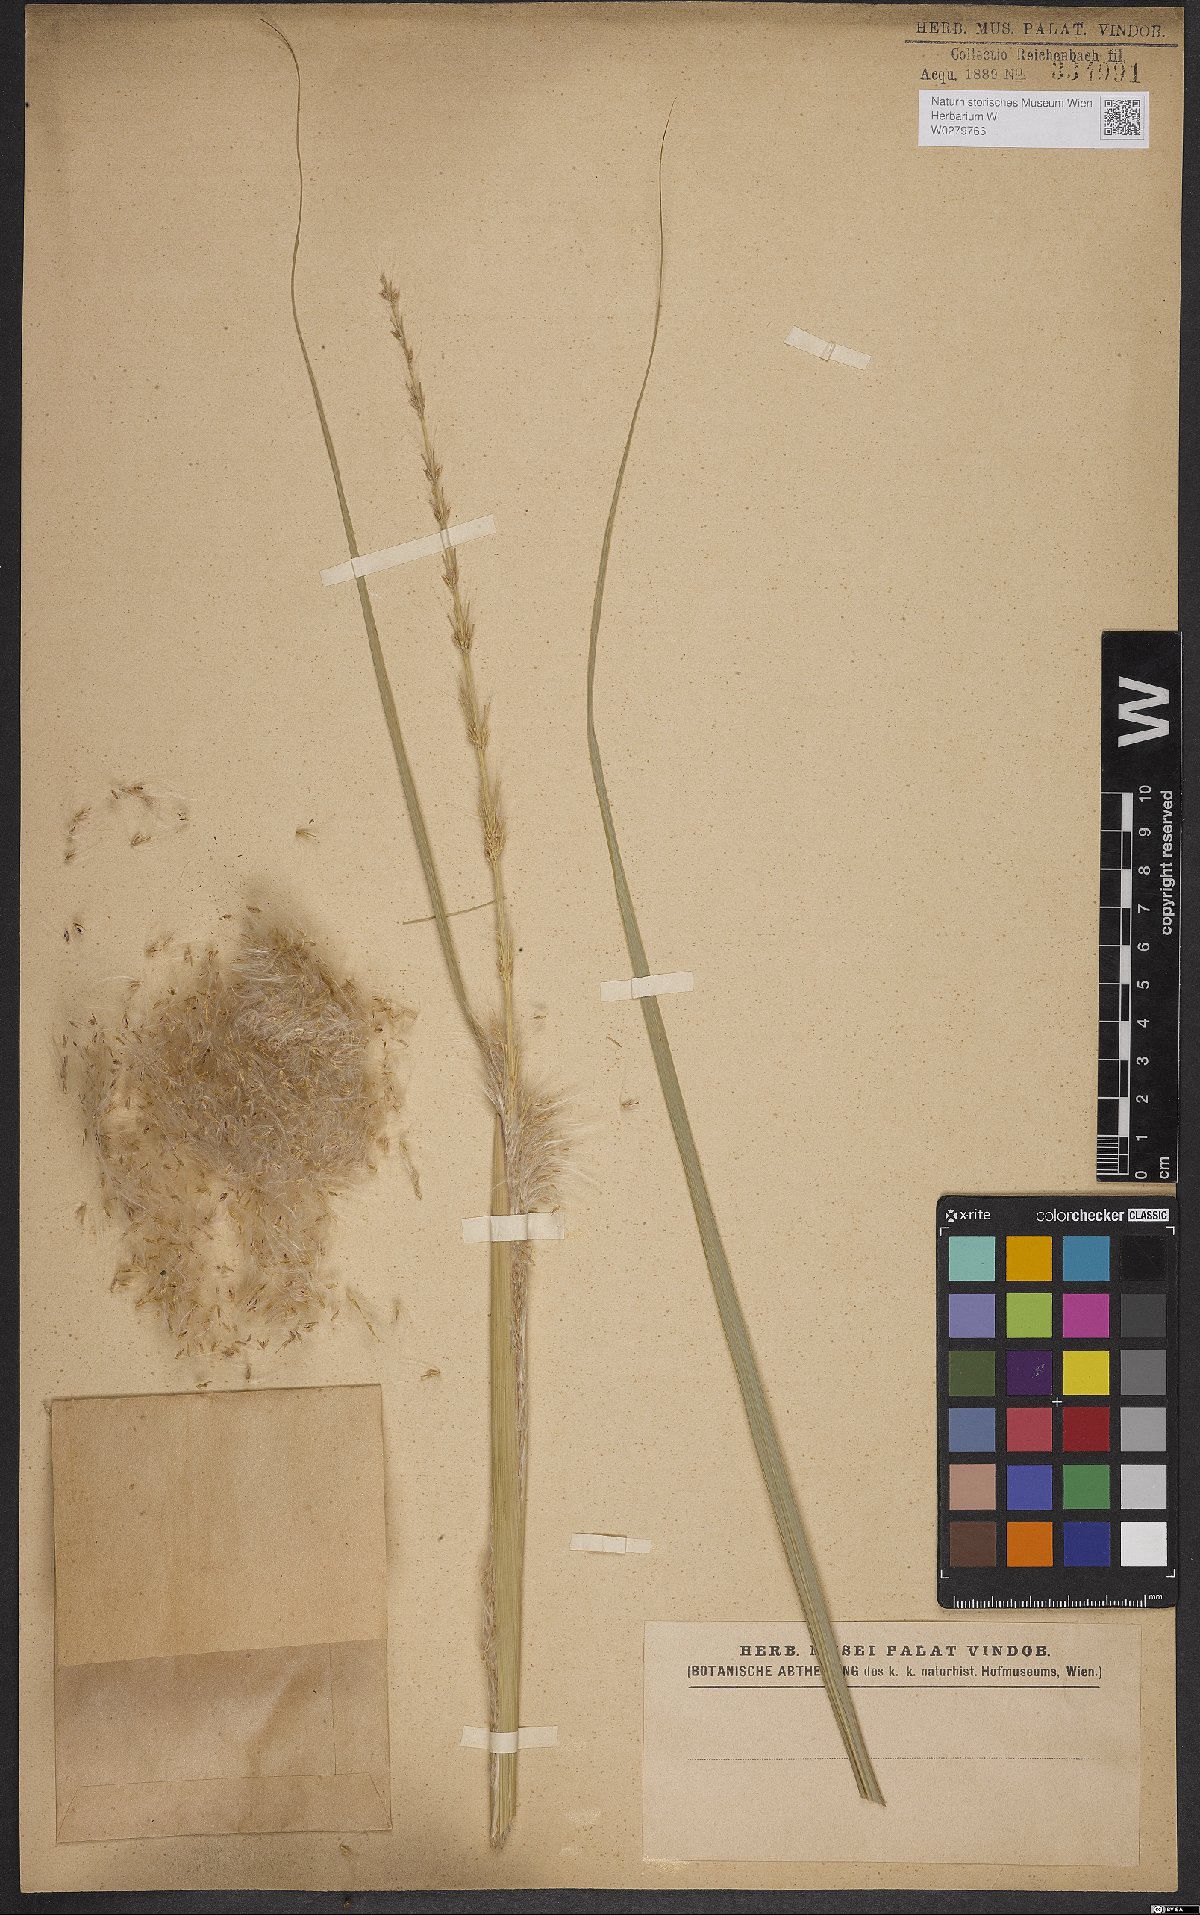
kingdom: Plantae
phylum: Tracheophyta
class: Liliopsida
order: Poales
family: Poaceae
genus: Arundinella
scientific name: Arundinella hispida
